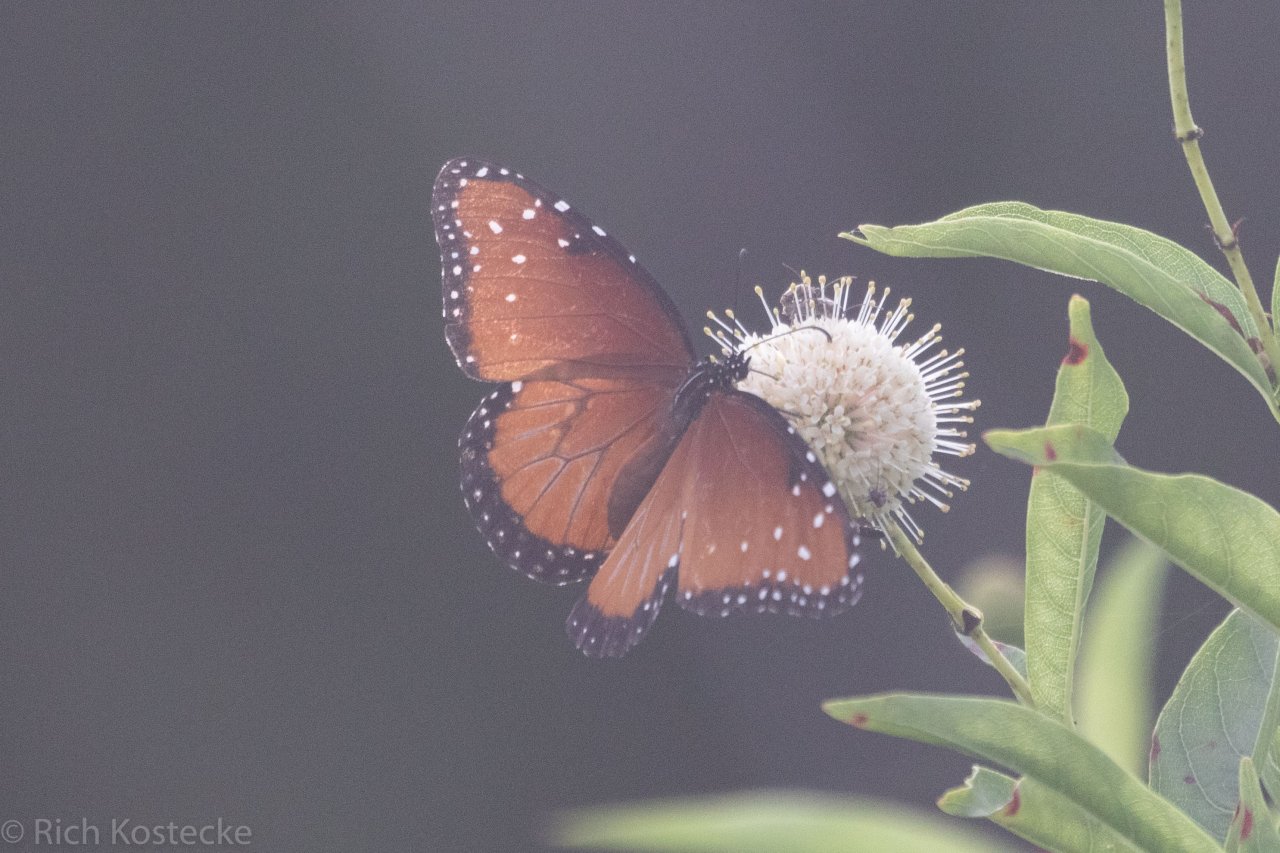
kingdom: Animalia
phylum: Arthropoda
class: Insecta
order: Lepidoptera
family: Nymphalidae
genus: Danaus
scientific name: Danaus gilippus
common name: Queen
